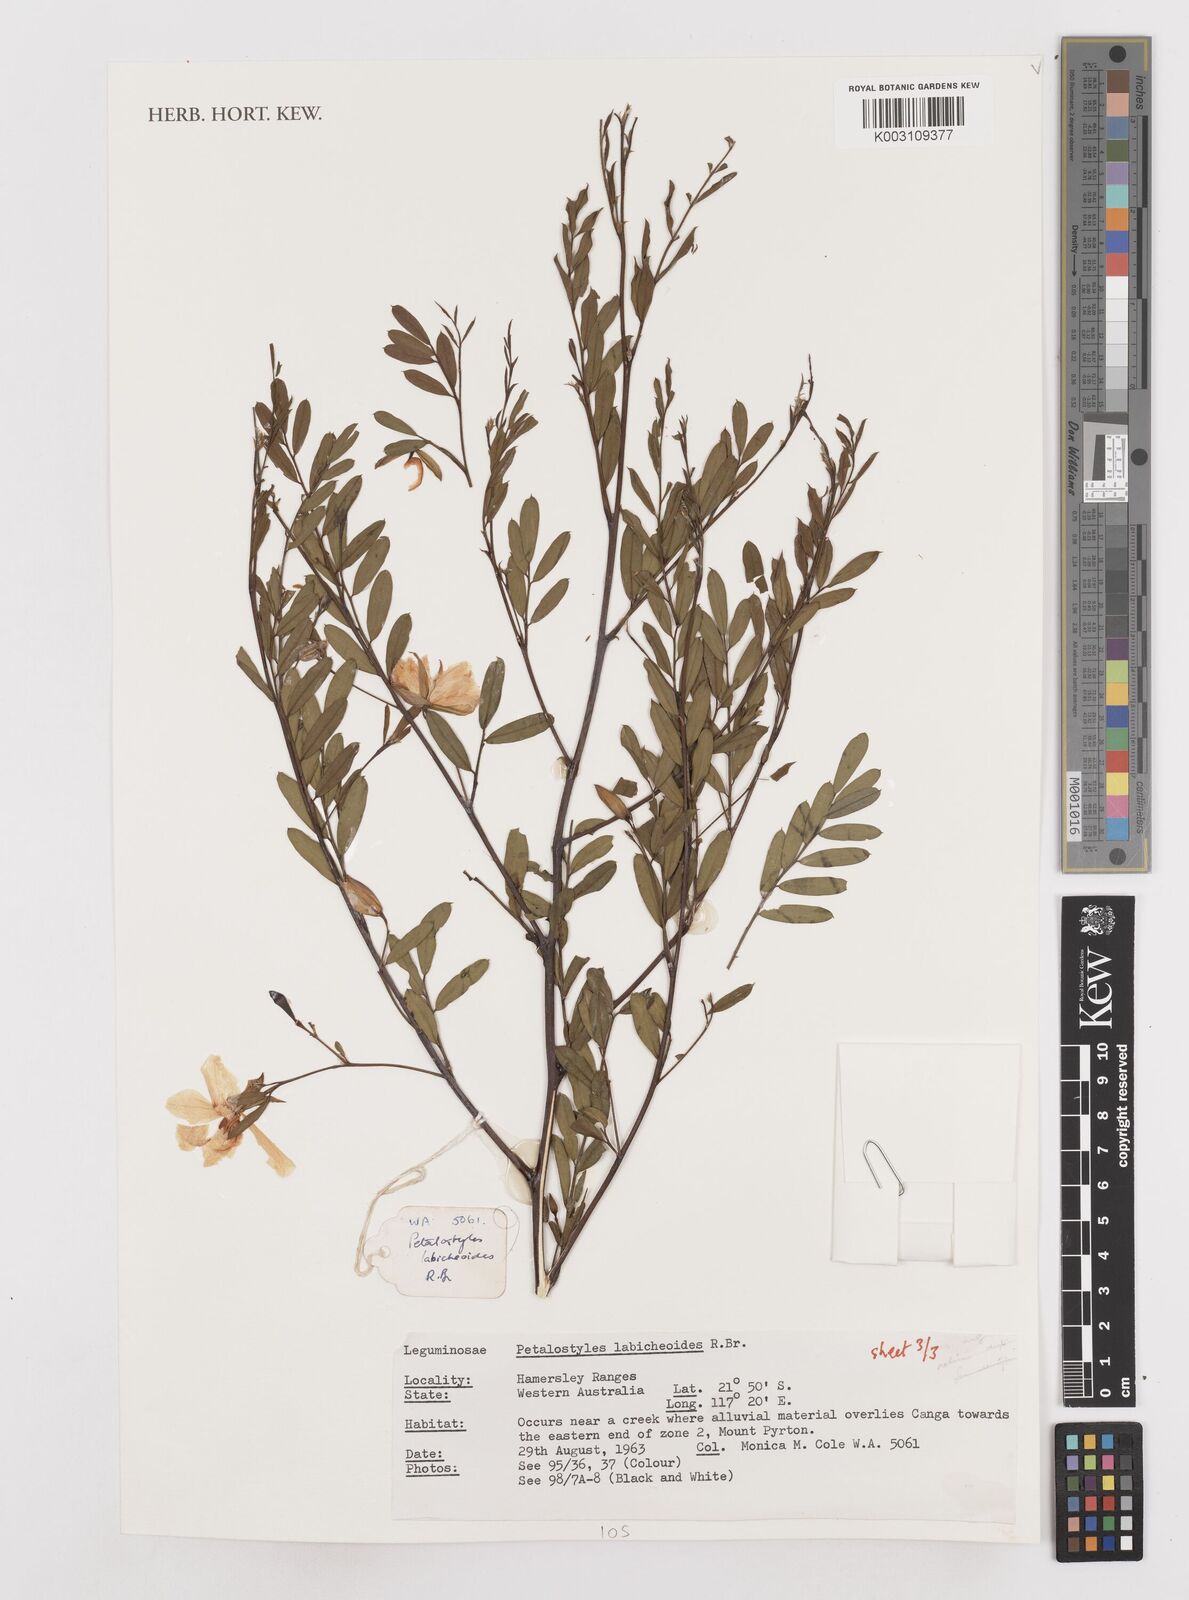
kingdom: Plantae
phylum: Tracheophyta
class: Magnoliopsida
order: Fabales
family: Fabaceae
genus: Petalostylis
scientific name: Petalostylis labicheoides
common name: Butterfly bush
